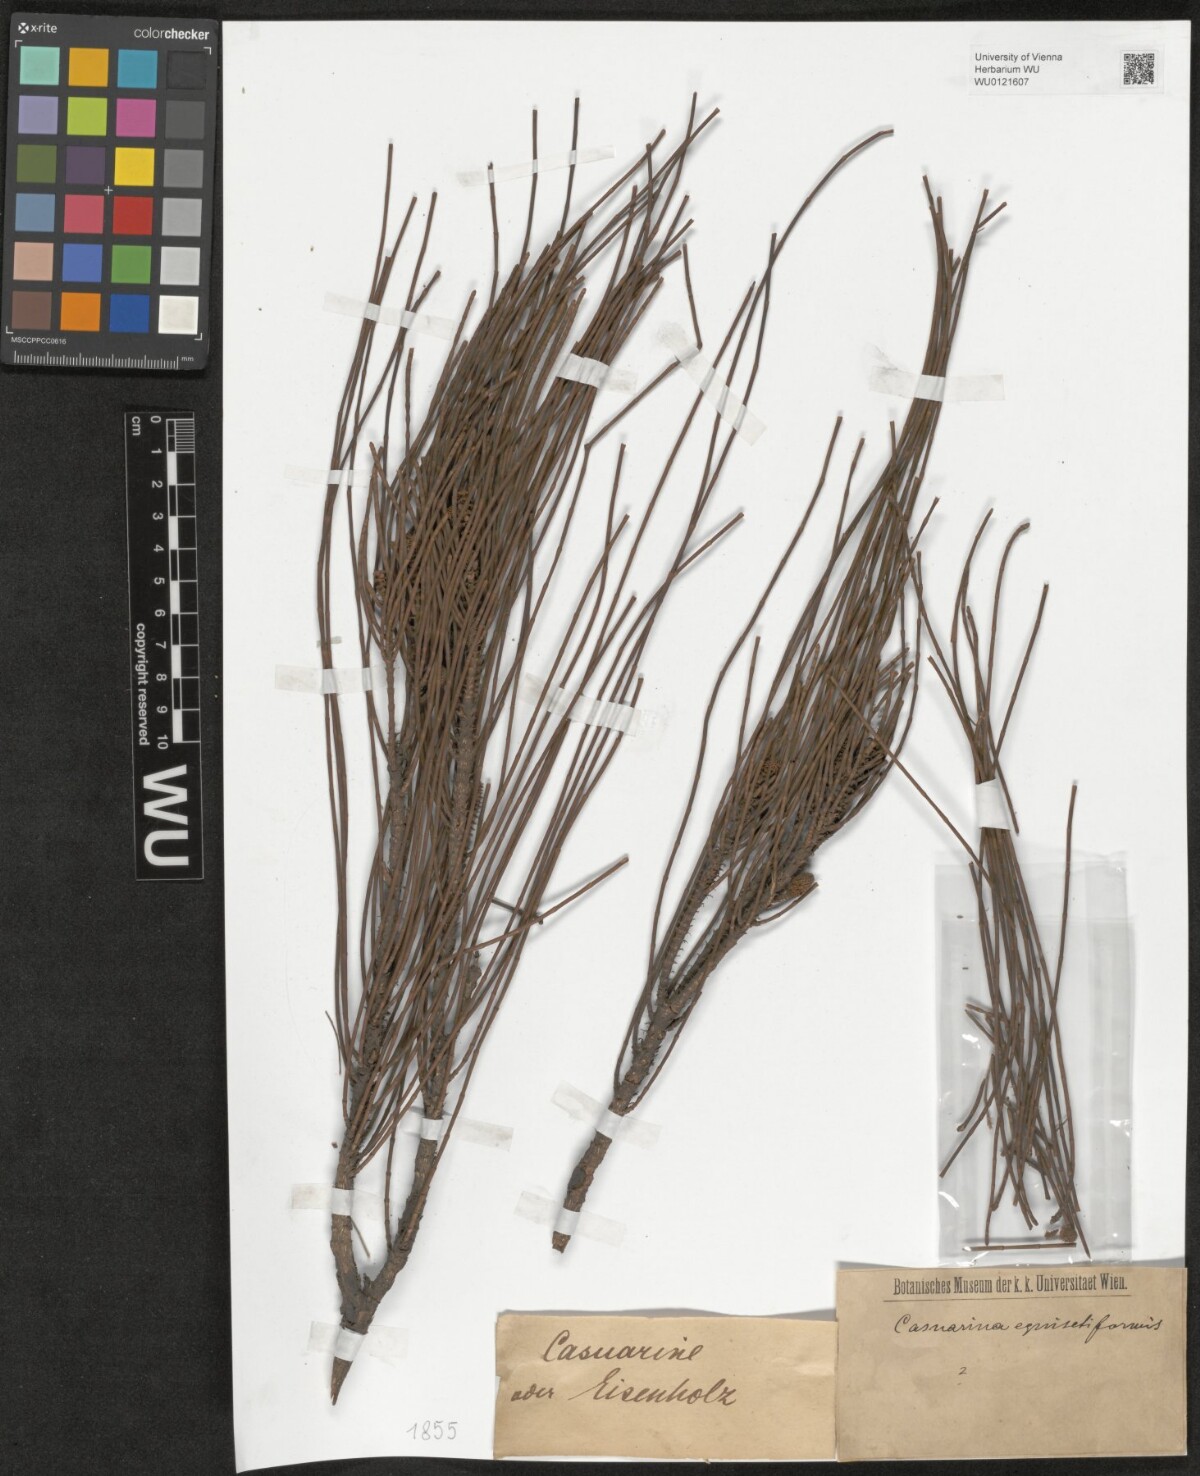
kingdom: Plantae
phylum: Tracheophyta
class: Magnoliopsida
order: Fagales
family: Casuarinaceae
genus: Casuarina
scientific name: Casuarina equisetifolia
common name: Beach sheoak
